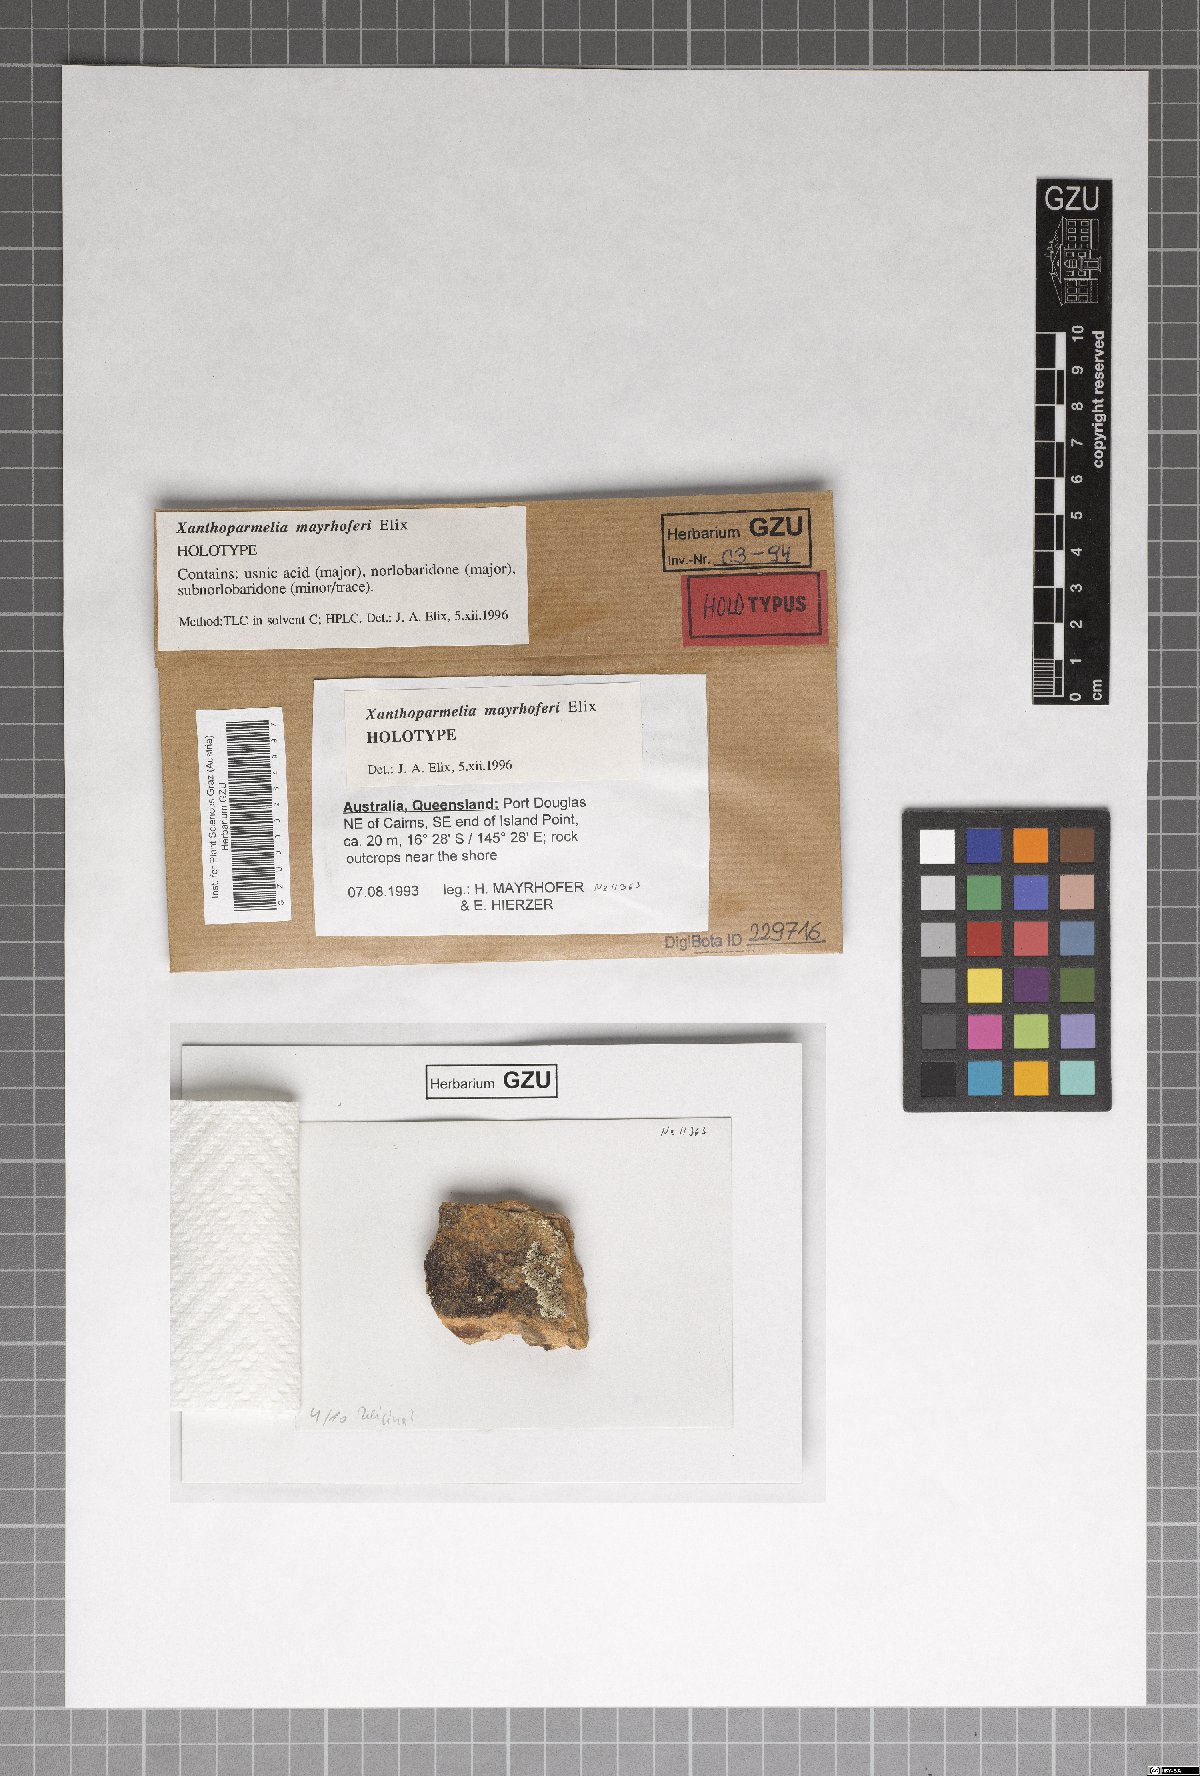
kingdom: Fungi
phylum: Ascomycota
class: Lecanoromycetes
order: Lecanorales
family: Parmeliaceae
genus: Xanthoparmelia
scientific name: Xanthoparmelia mayrhoferi
